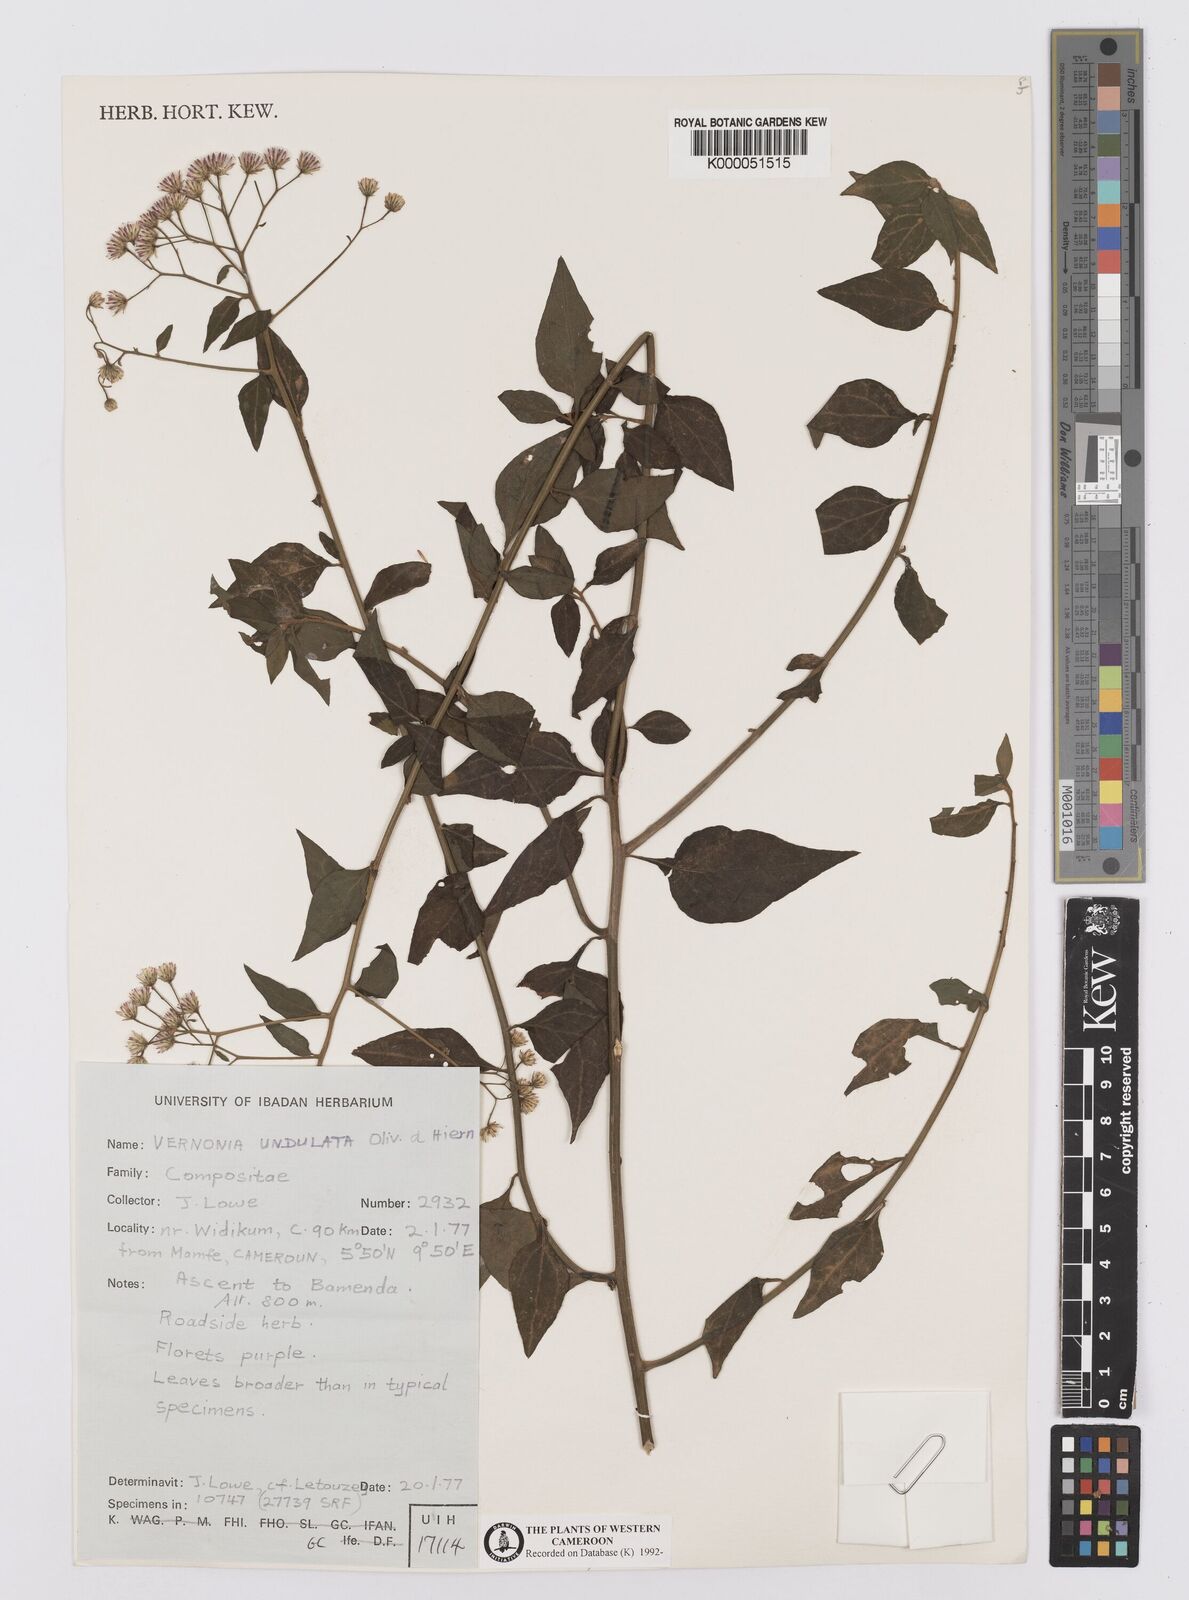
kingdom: Plantae
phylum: Tracheophyta
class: Magnoliopsida
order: Asterales
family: Asteraceae
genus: Vernonia
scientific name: Vernonia golungensis
